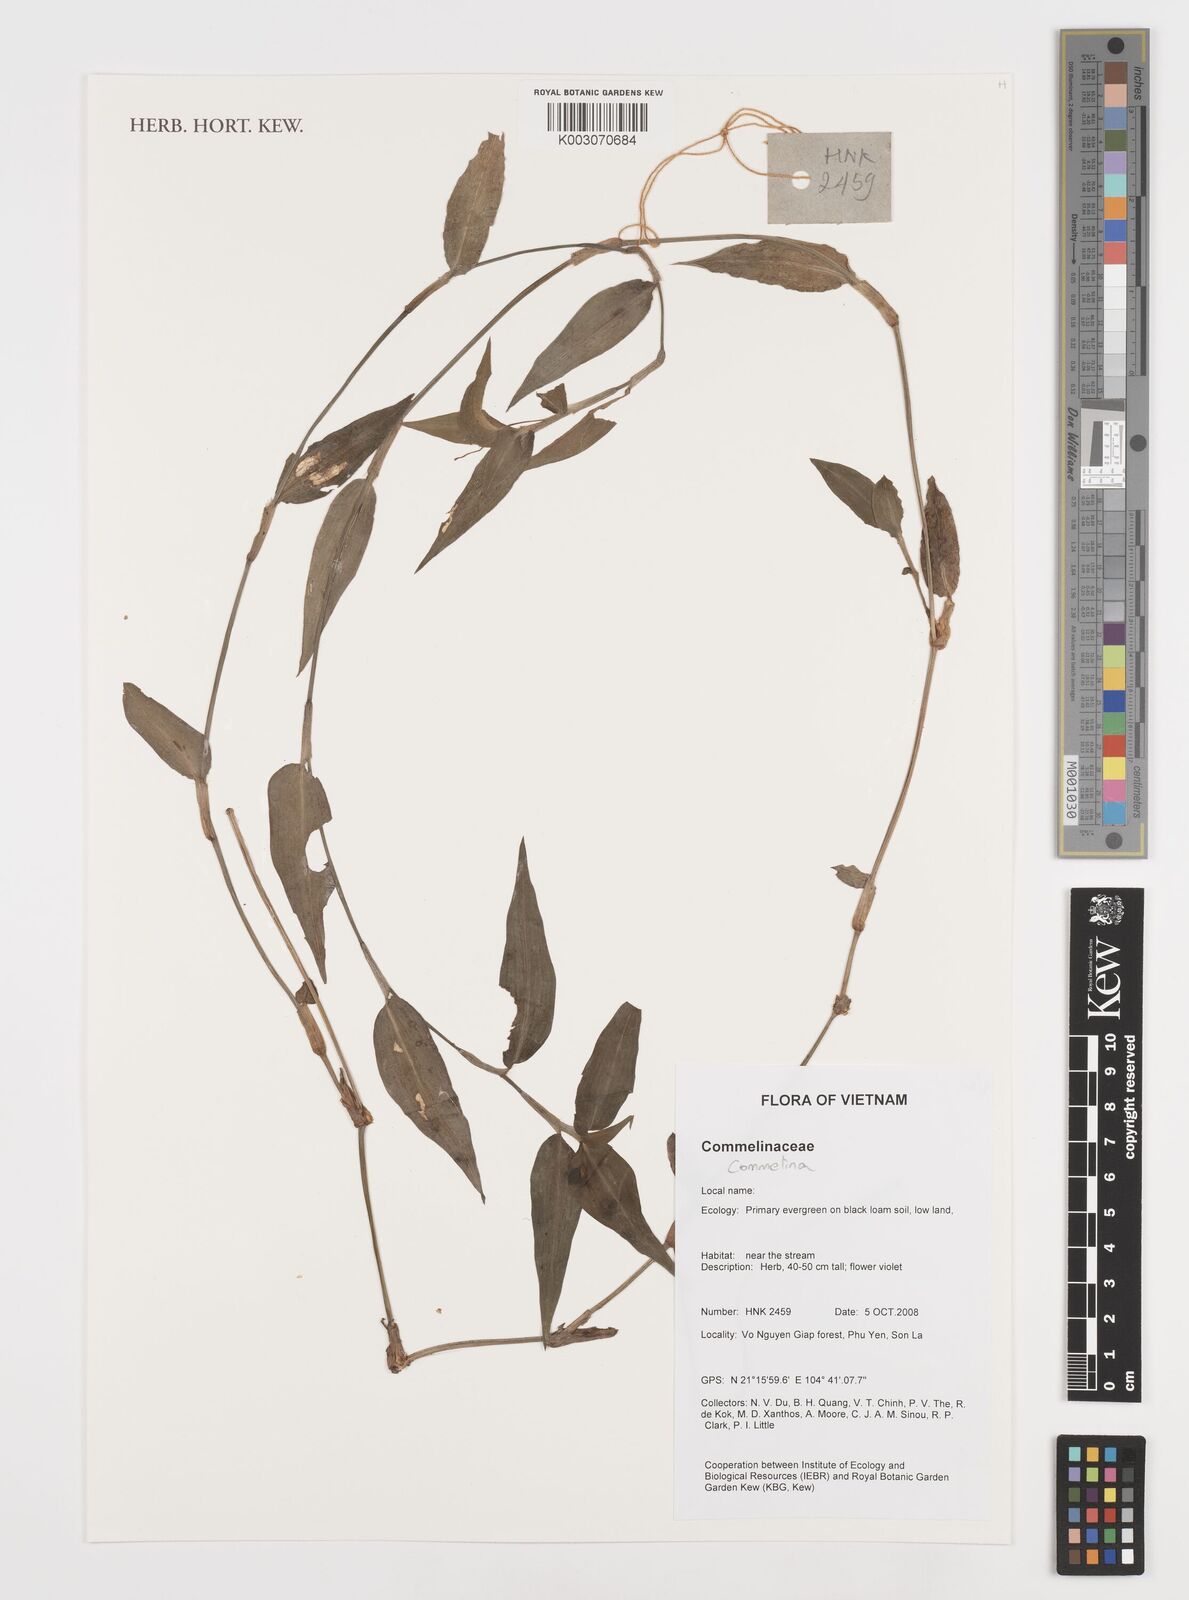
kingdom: Plantae
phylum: Tracheophyta
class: Liliopsida
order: Commelinales
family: Commelinaceae
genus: Commelina
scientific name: Commelina
